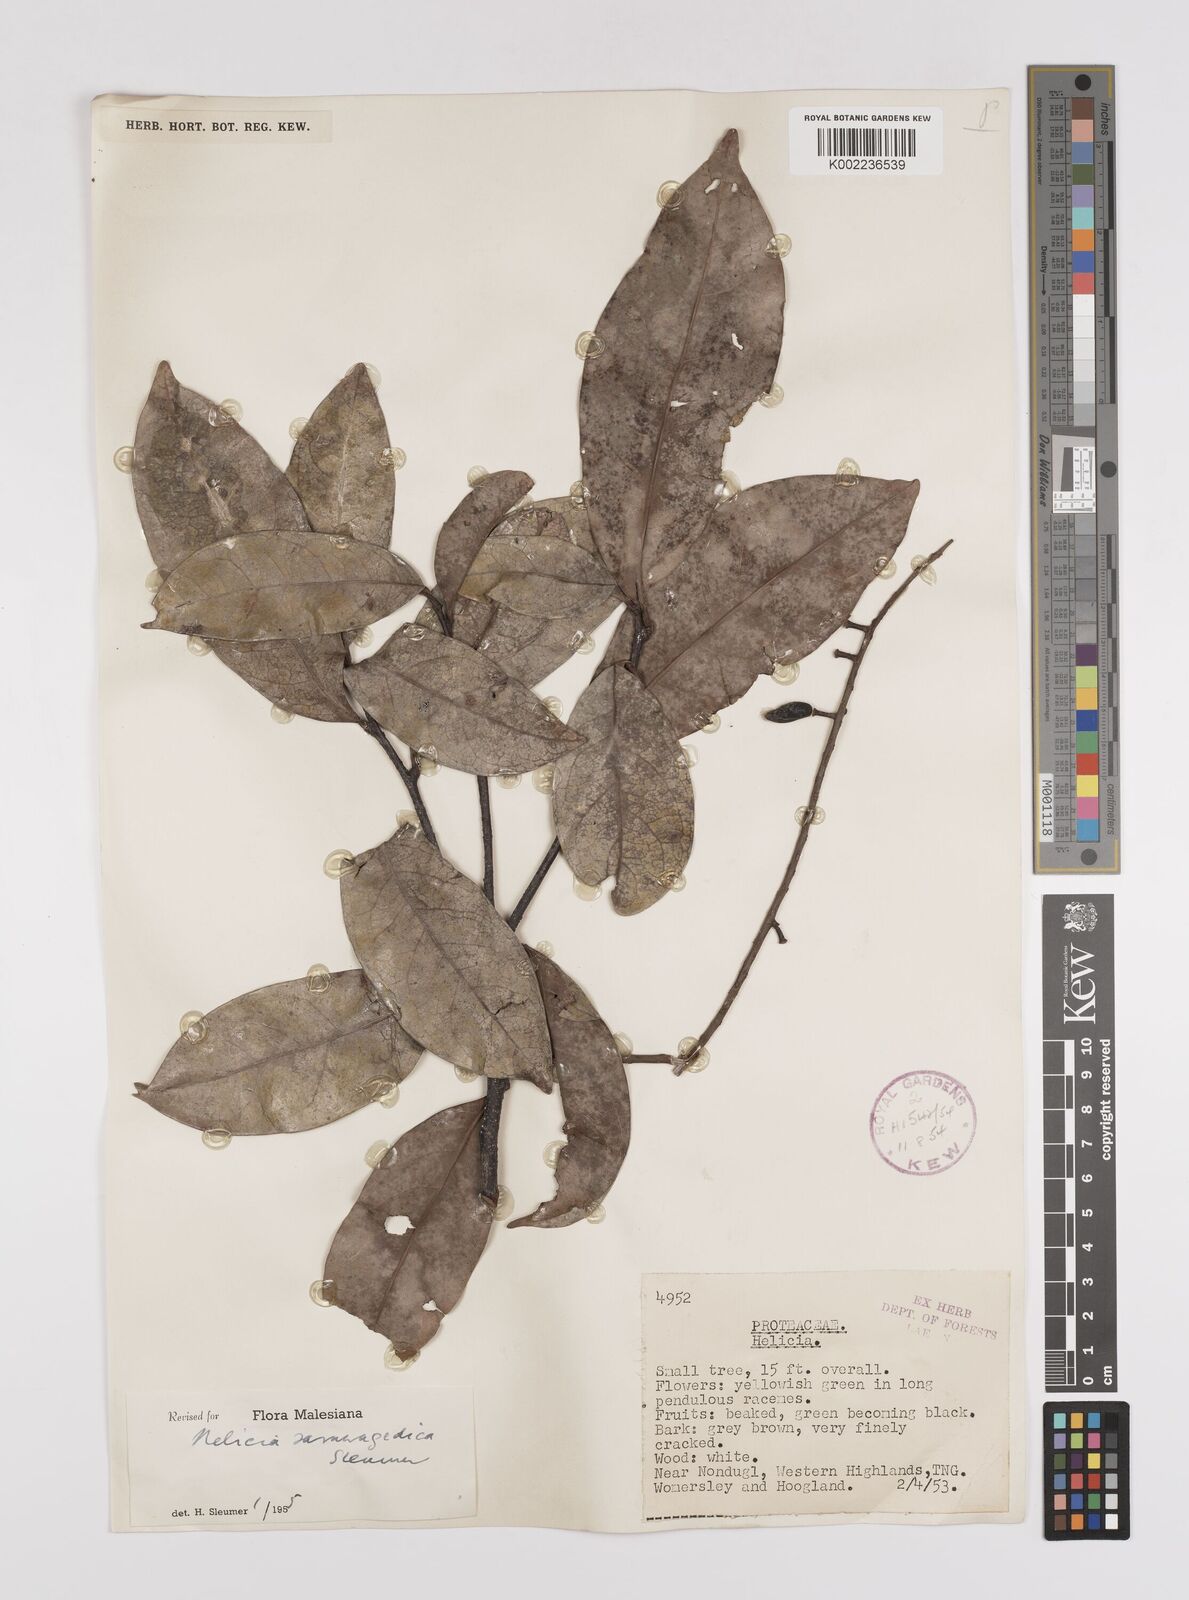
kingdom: Plantae
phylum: Tracheophyta
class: Magnoliopsida
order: Proteales
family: Proteaceae
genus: Helicia
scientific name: Helicia saruwagedica
